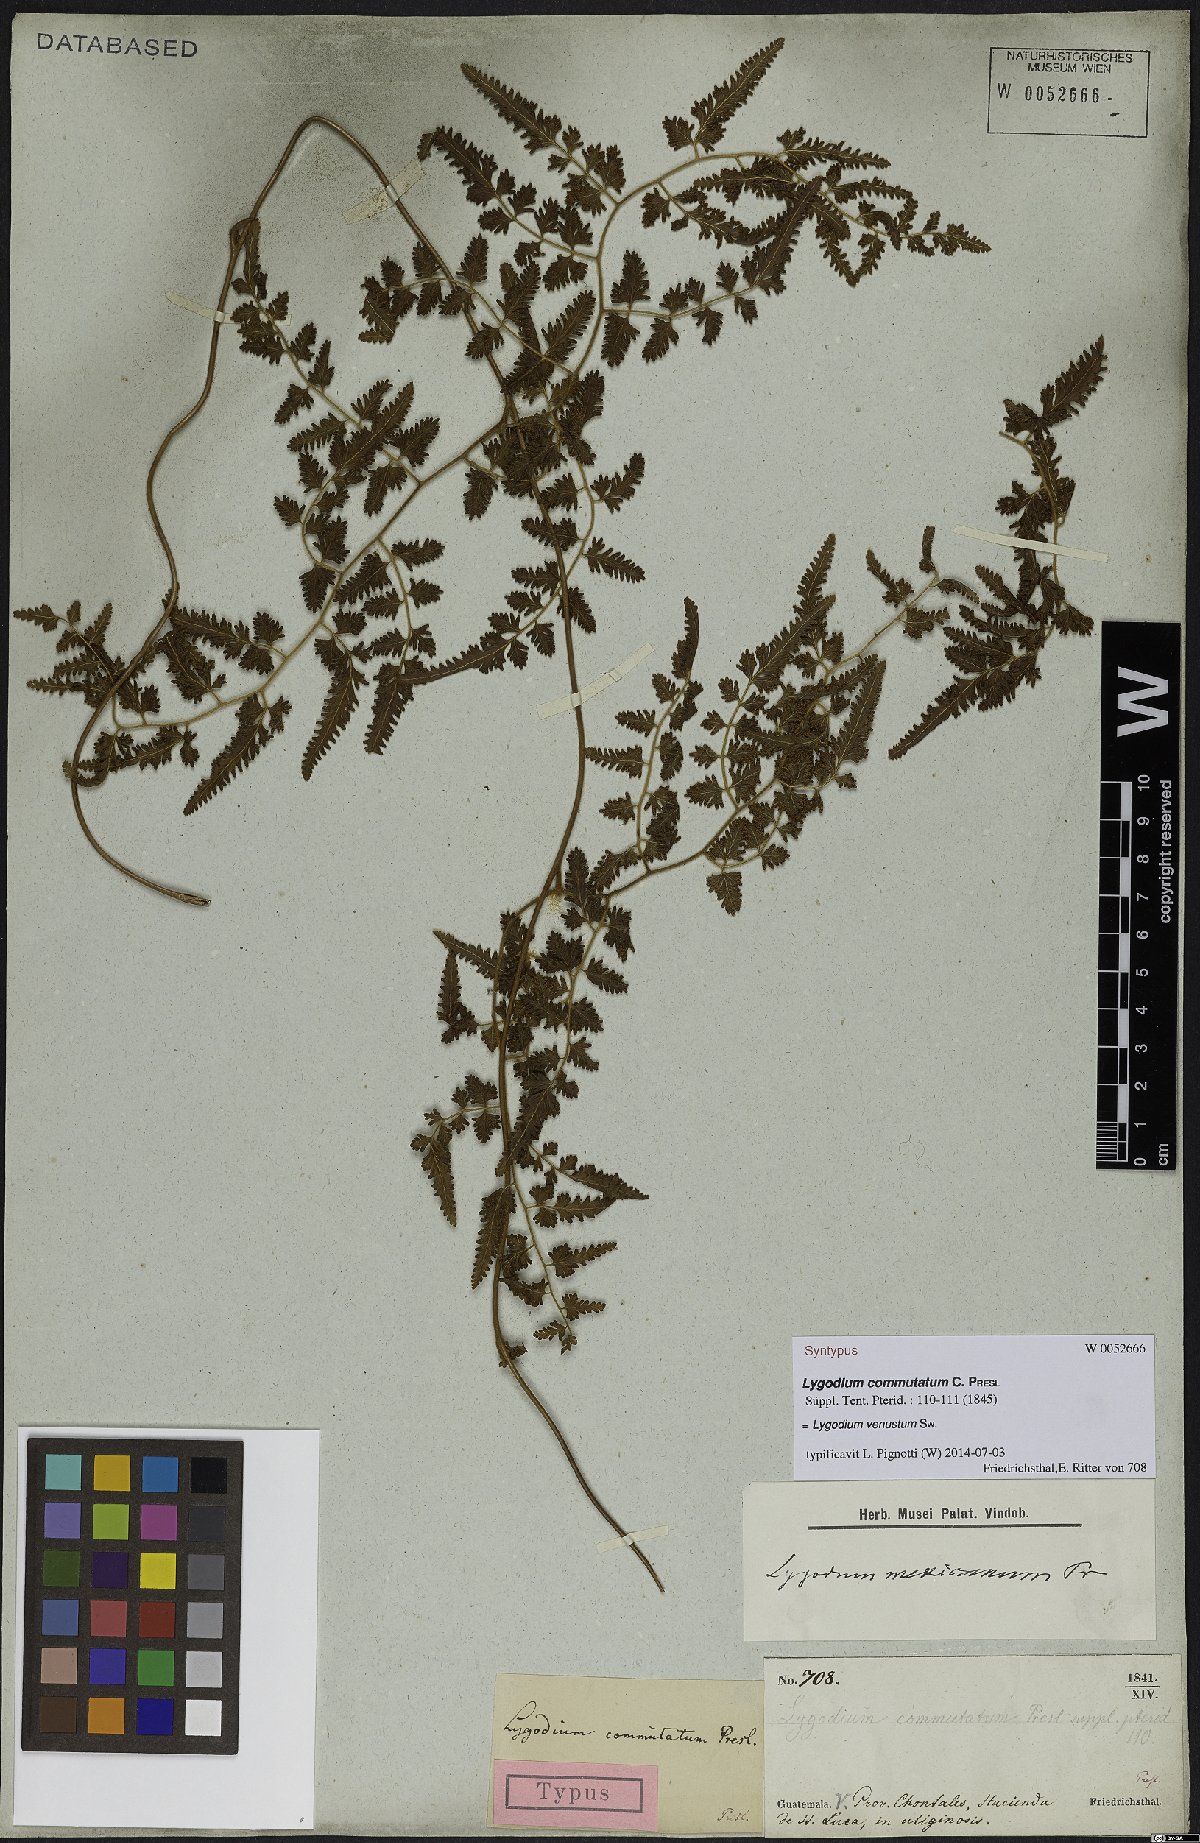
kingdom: Plantae
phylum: Tracheophyta
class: Polypodiopsida
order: Schizaeales
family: Lygodiaceae
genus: Lygodium
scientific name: Lygodium venustum
